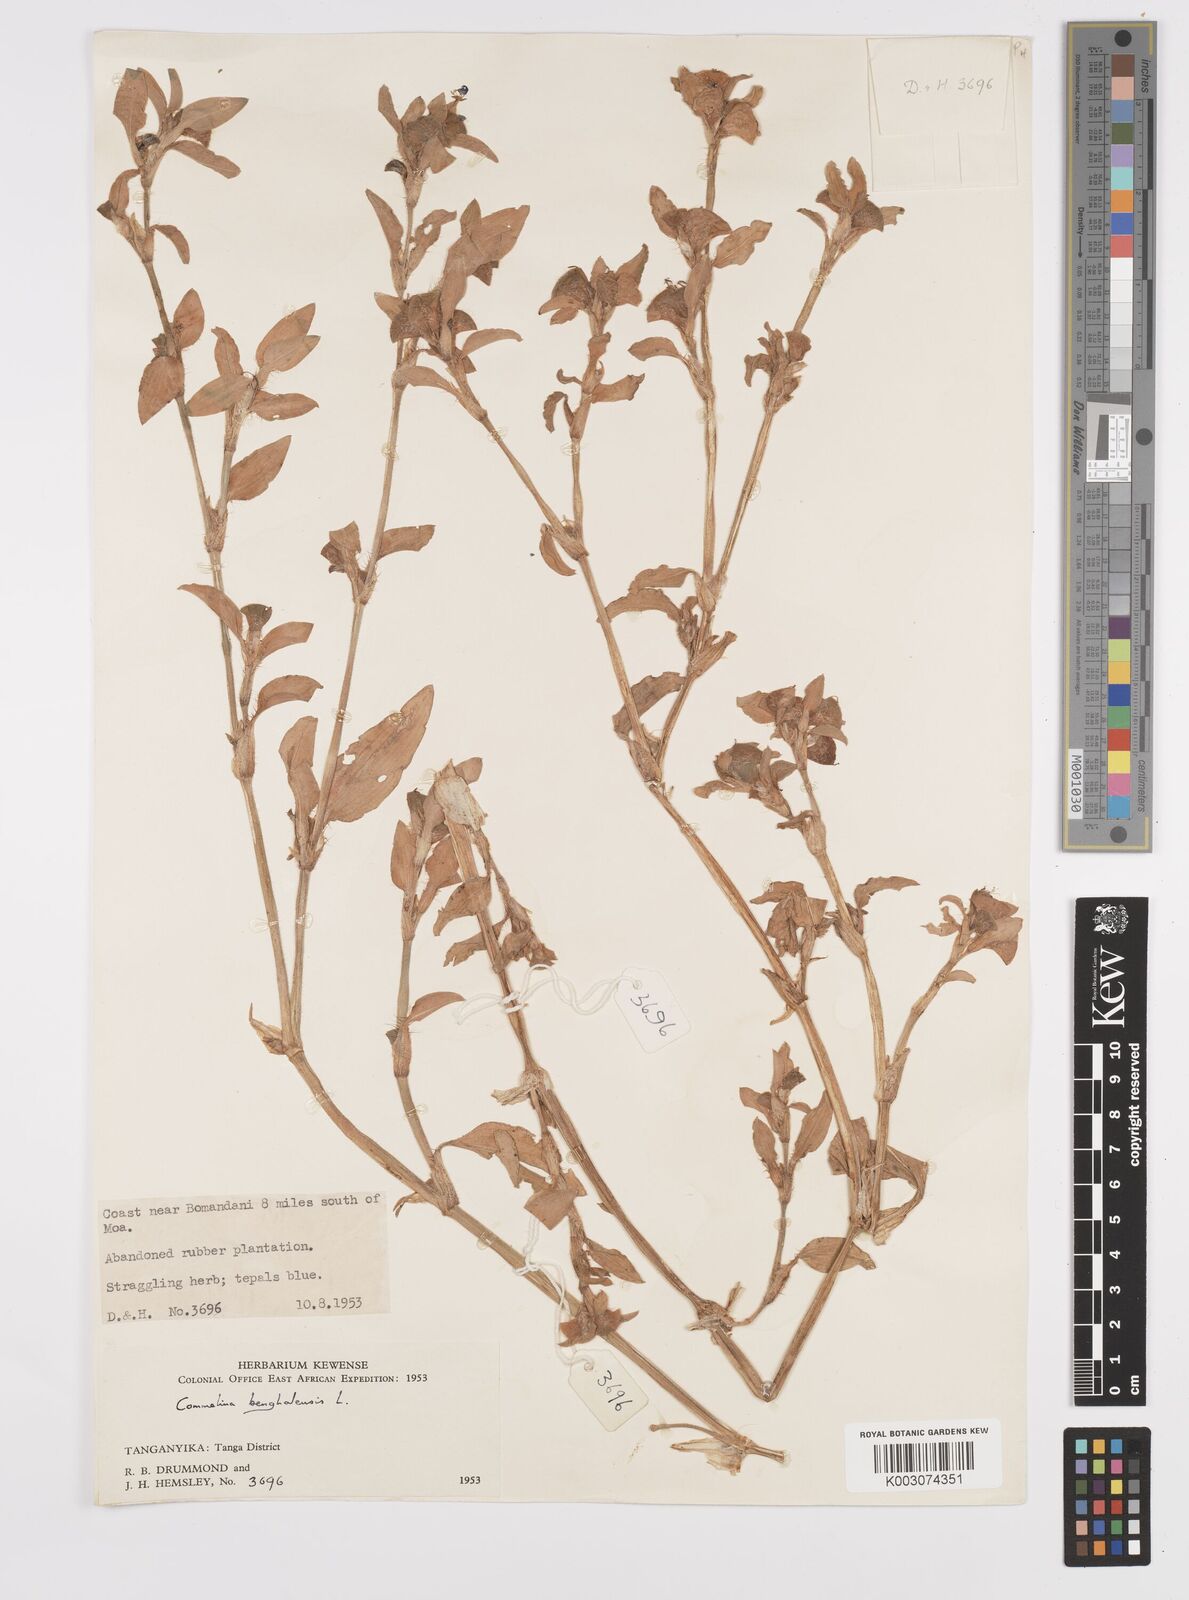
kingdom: Plantae
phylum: Tracheophyta
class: Liliopsida
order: Commelinales
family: Commelinaceae
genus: Commelina
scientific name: Commelina benghalensis
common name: Jio
